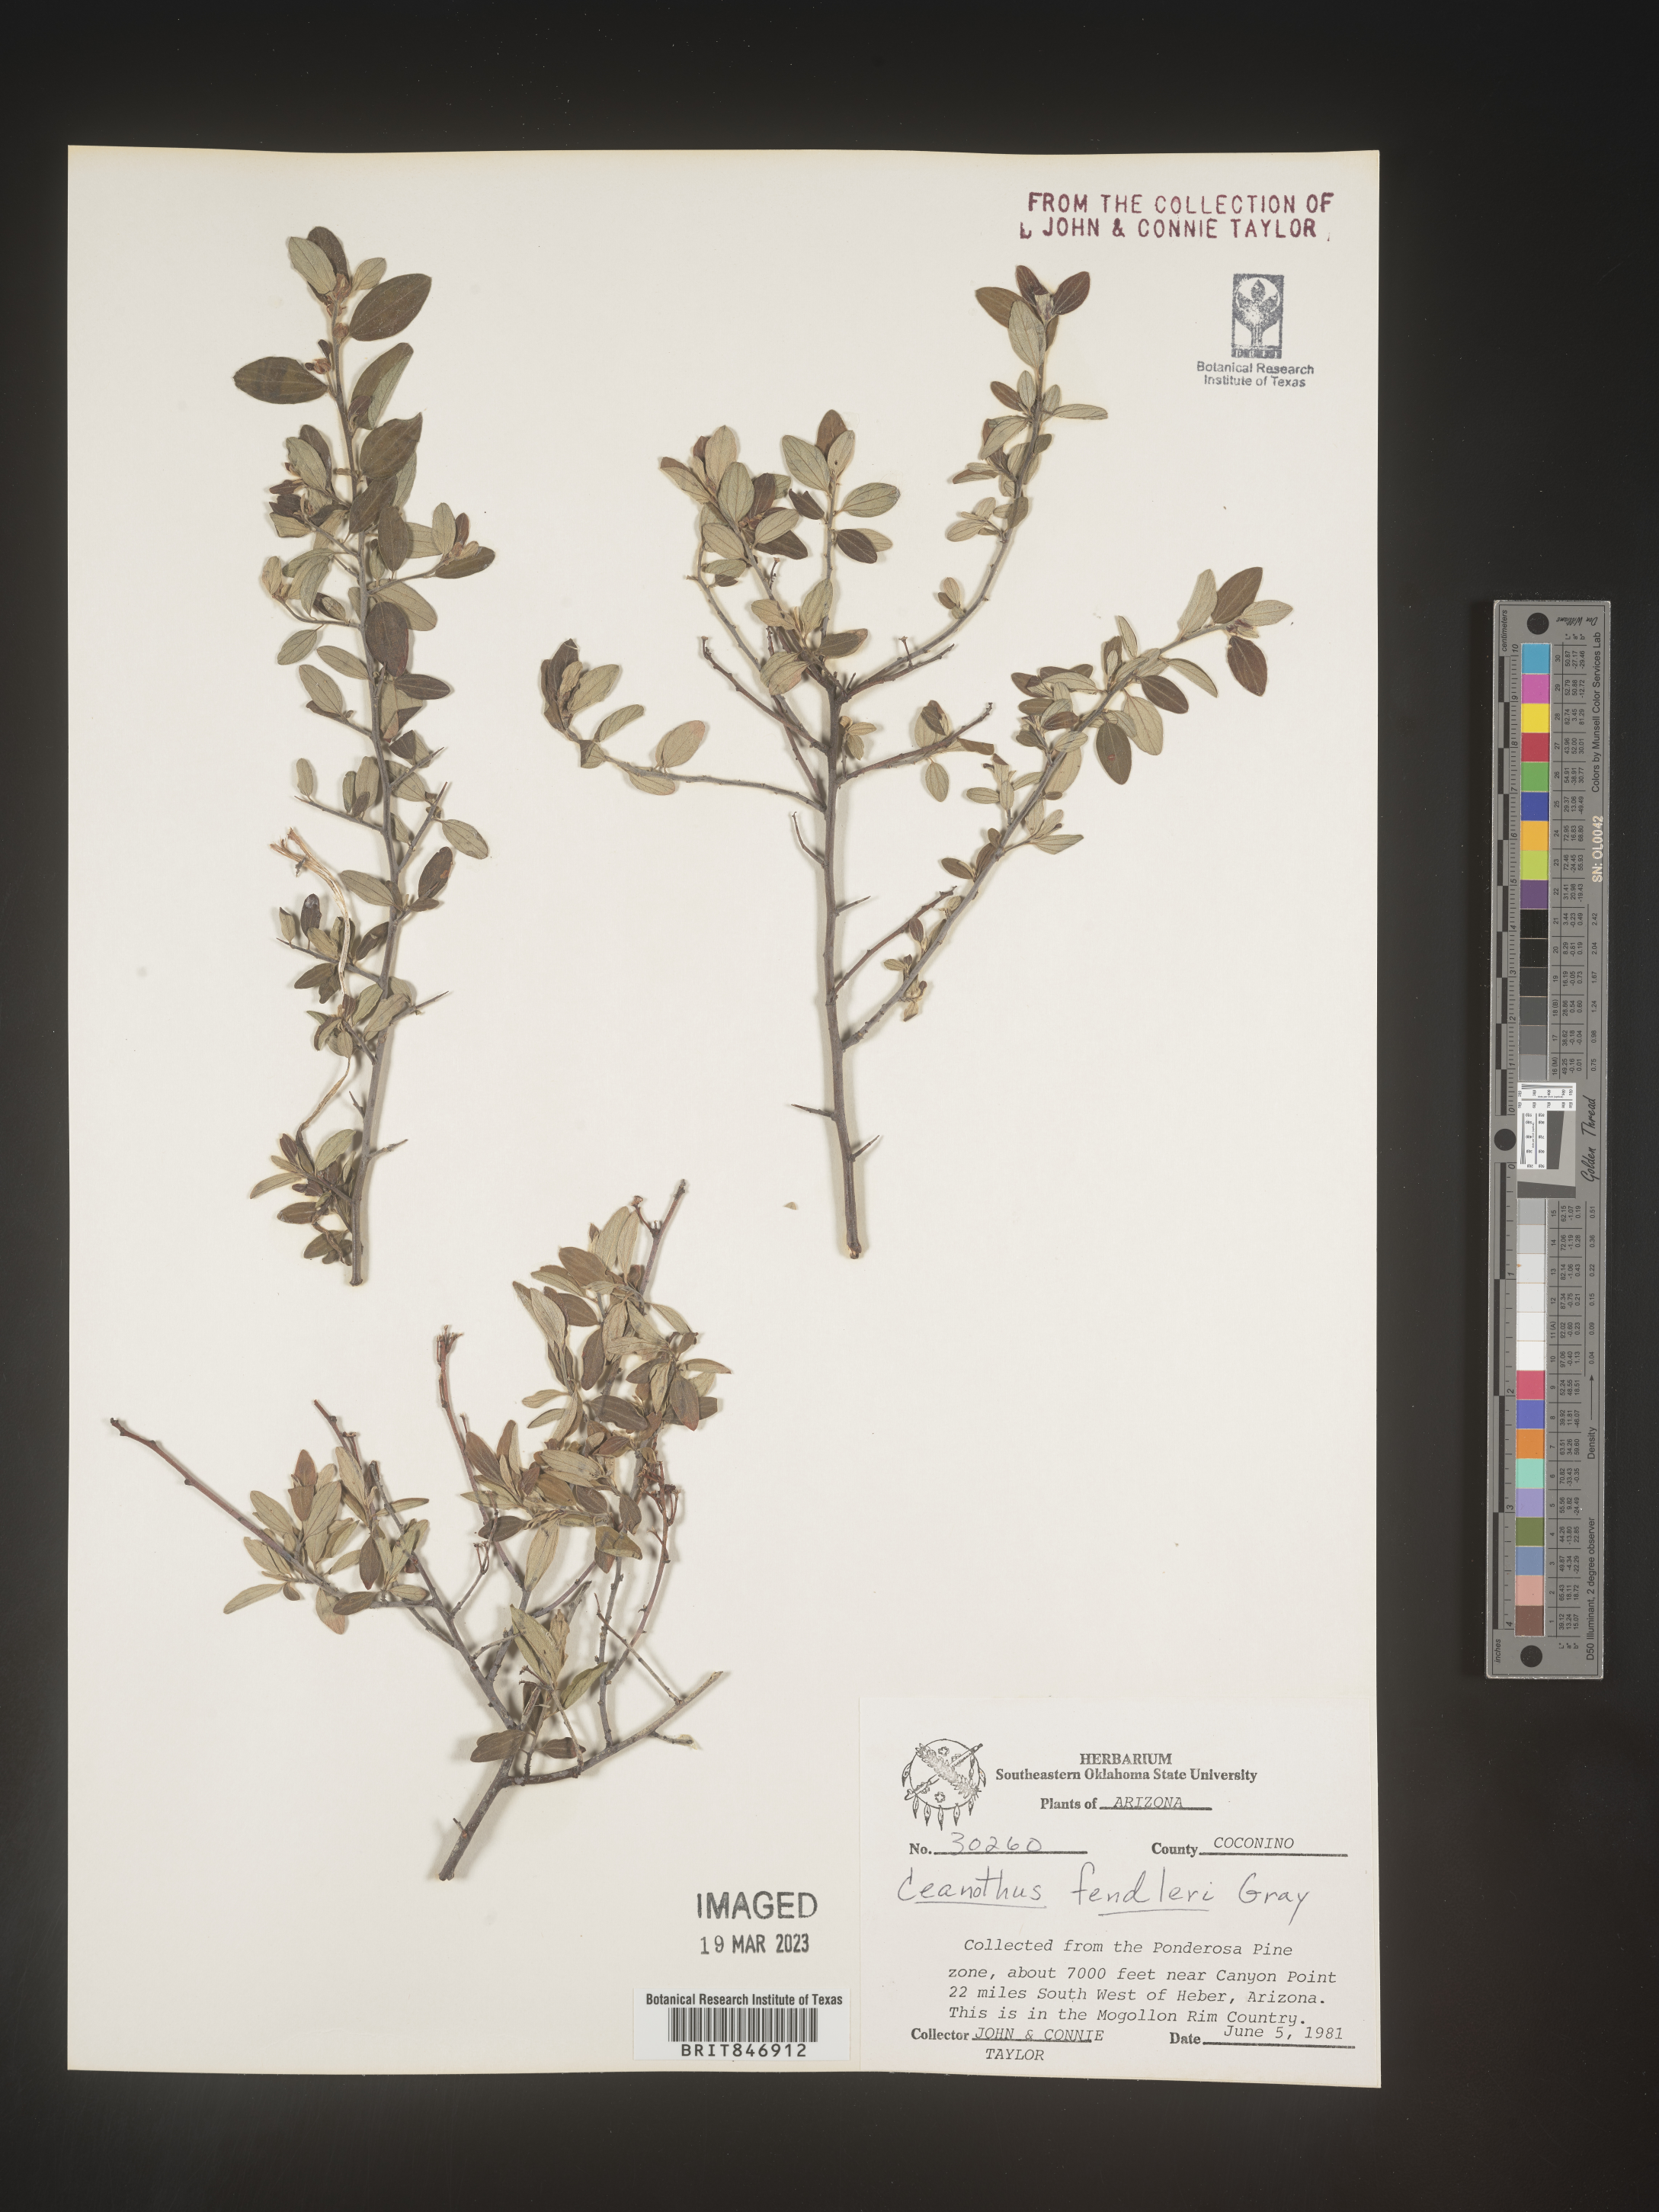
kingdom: Plantae
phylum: Tracheophyta
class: Magnoliopsida
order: Rosales
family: Rhamnaceae
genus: Ceanothus
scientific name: Ceanothus fendleri
